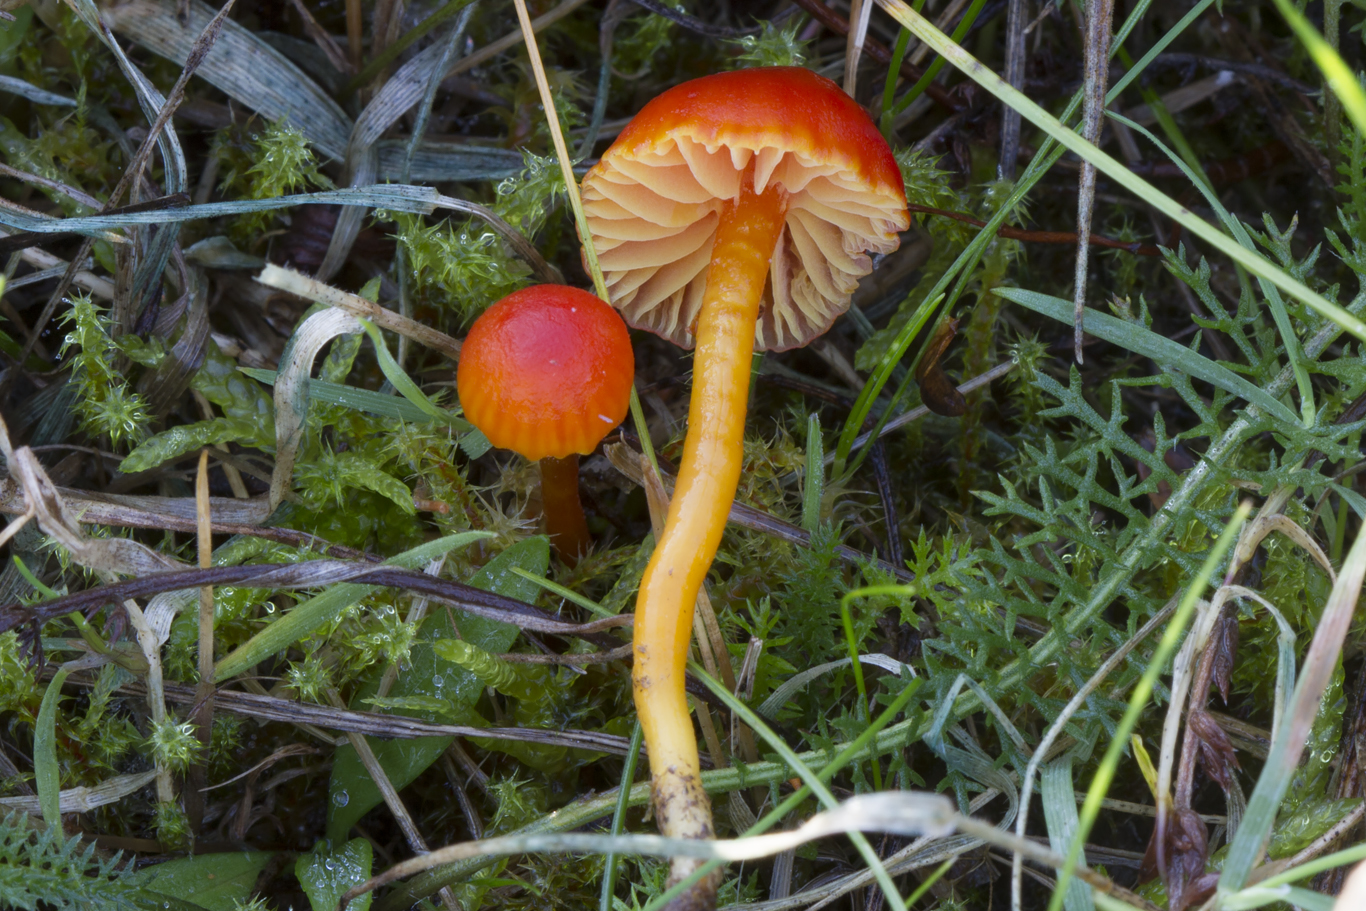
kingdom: Fungi
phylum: Basidiomycota
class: Agaricomycetes
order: Agaricales
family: Hygrophoraceae
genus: Hygrocybe
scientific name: Hygrocybe mucronella
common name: bitter vokshat
